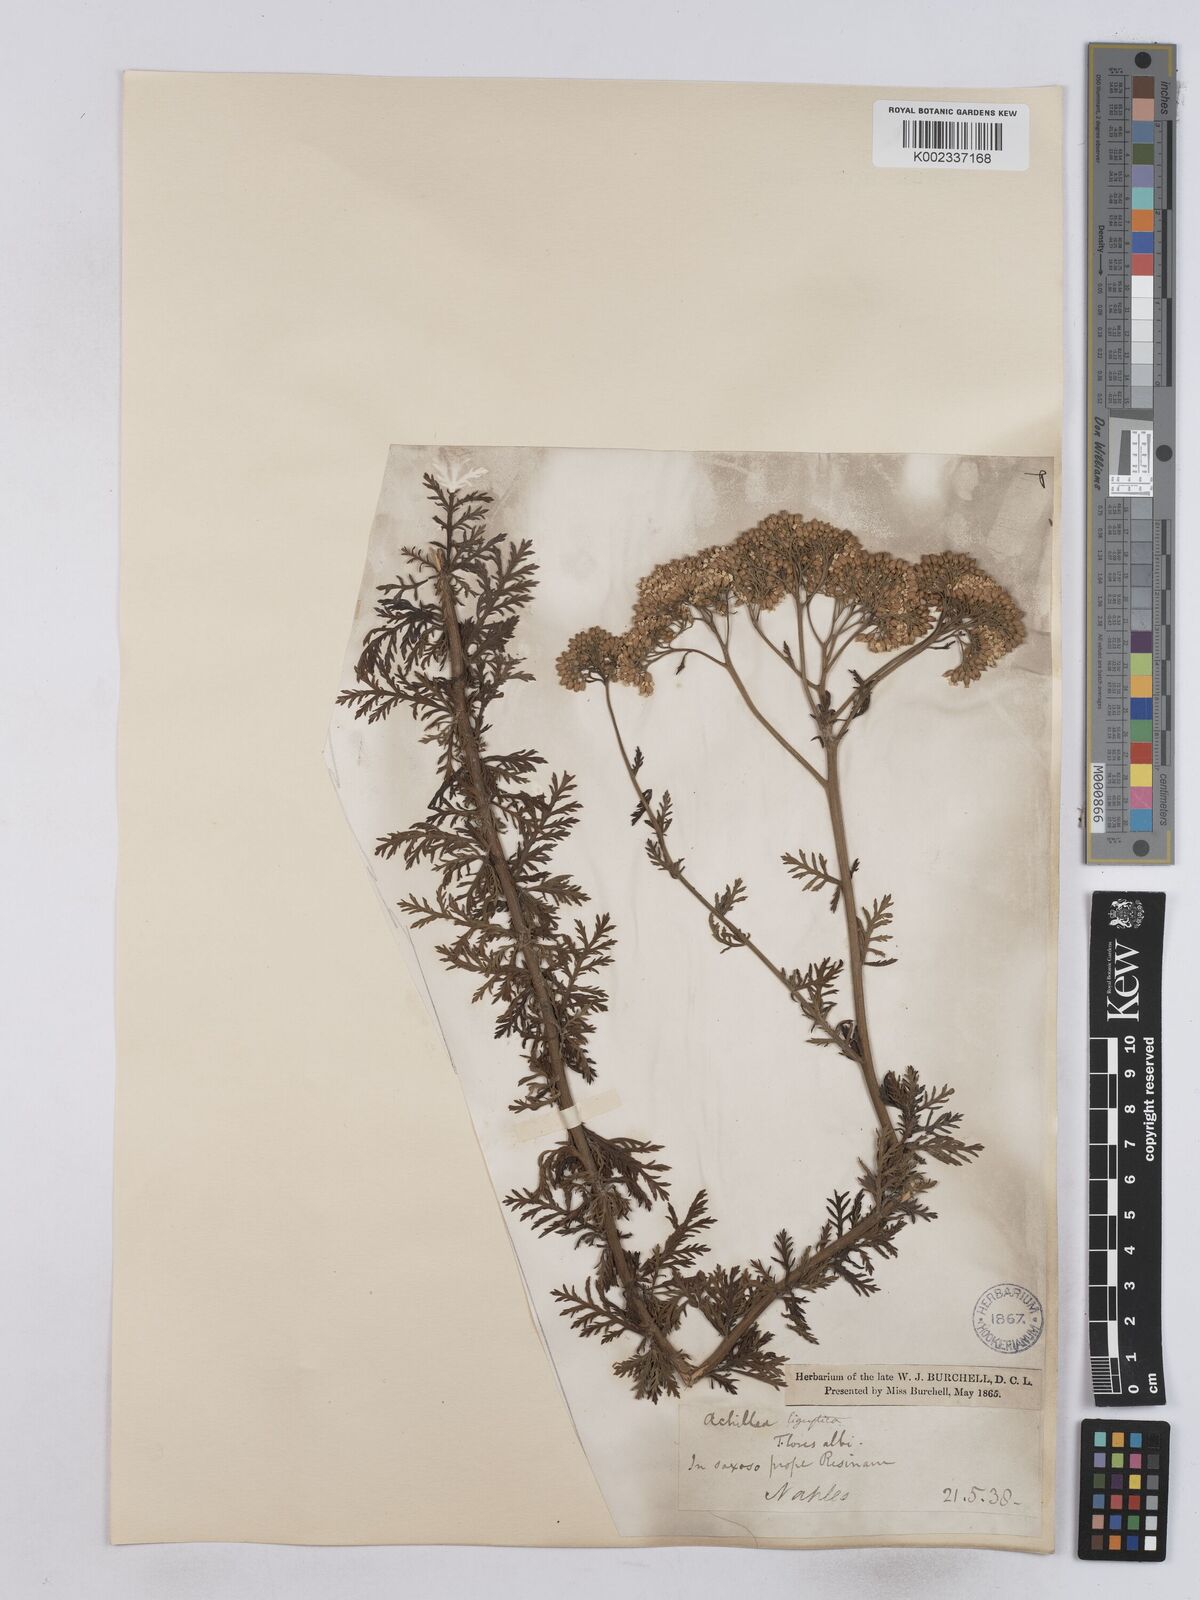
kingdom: Plantae
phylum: Tracheophyta
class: Magnoliopsida
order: Asterales
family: Asteraceae
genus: Achillea
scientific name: Achillea ligustica
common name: Southern yarrow
